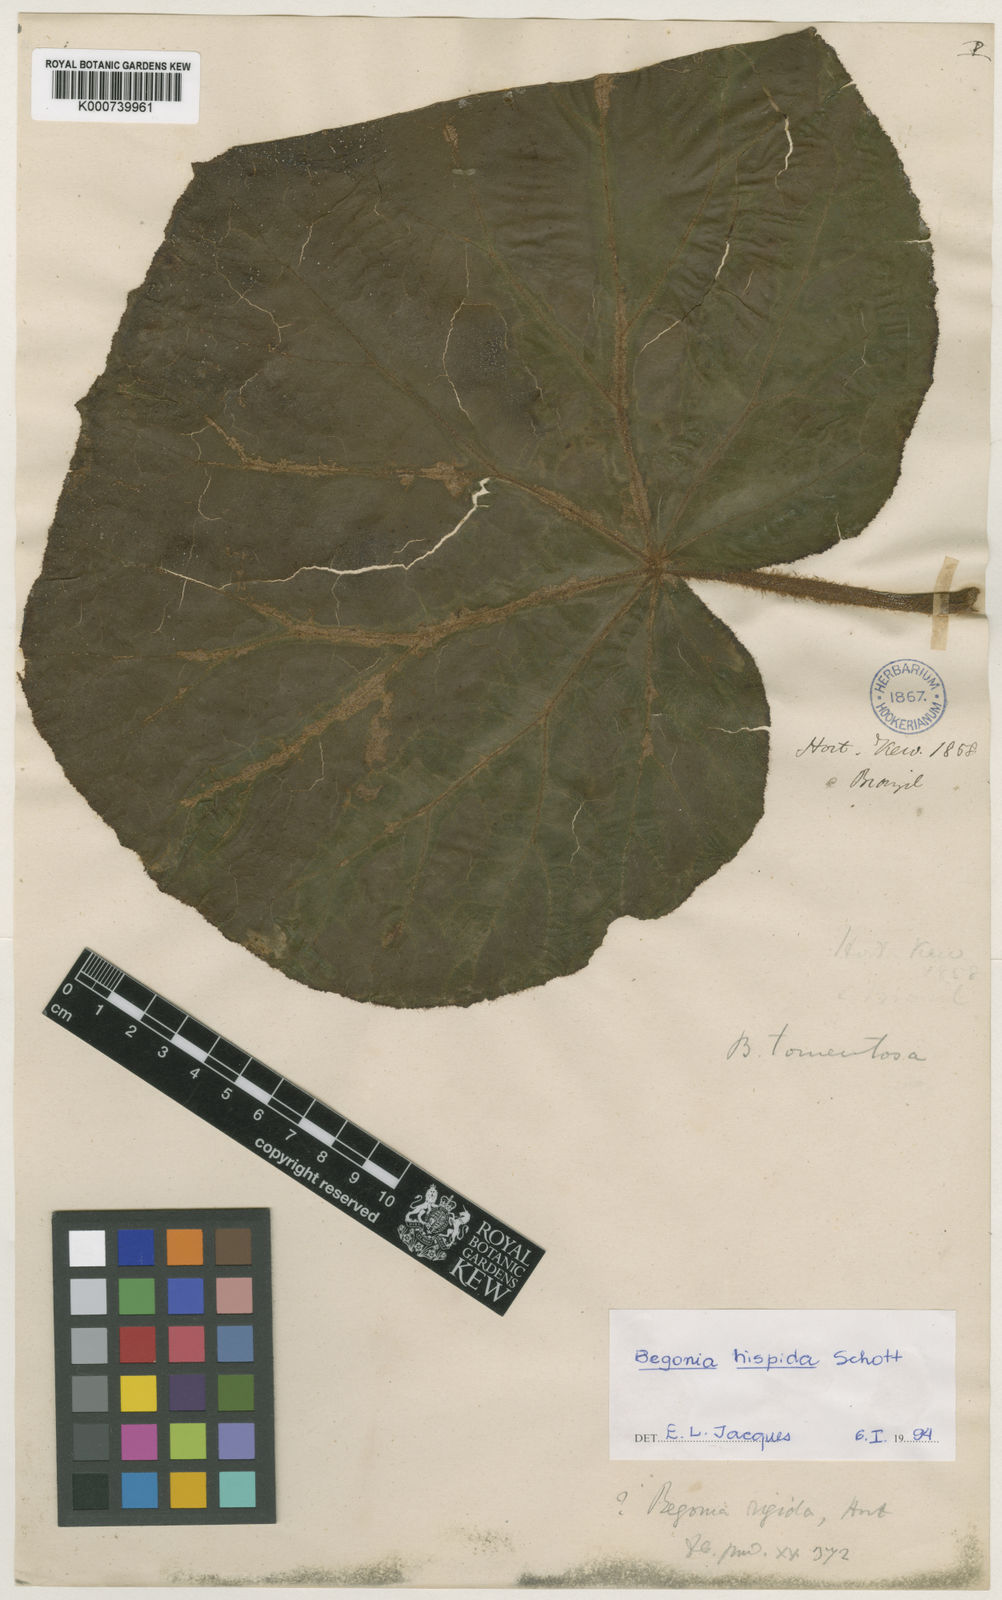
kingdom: Plantae
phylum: Tracheophyta
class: Magnoliopsida
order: Cucurbitales
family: Begoniaceae
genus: Begonia
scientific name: Begonia rigida
